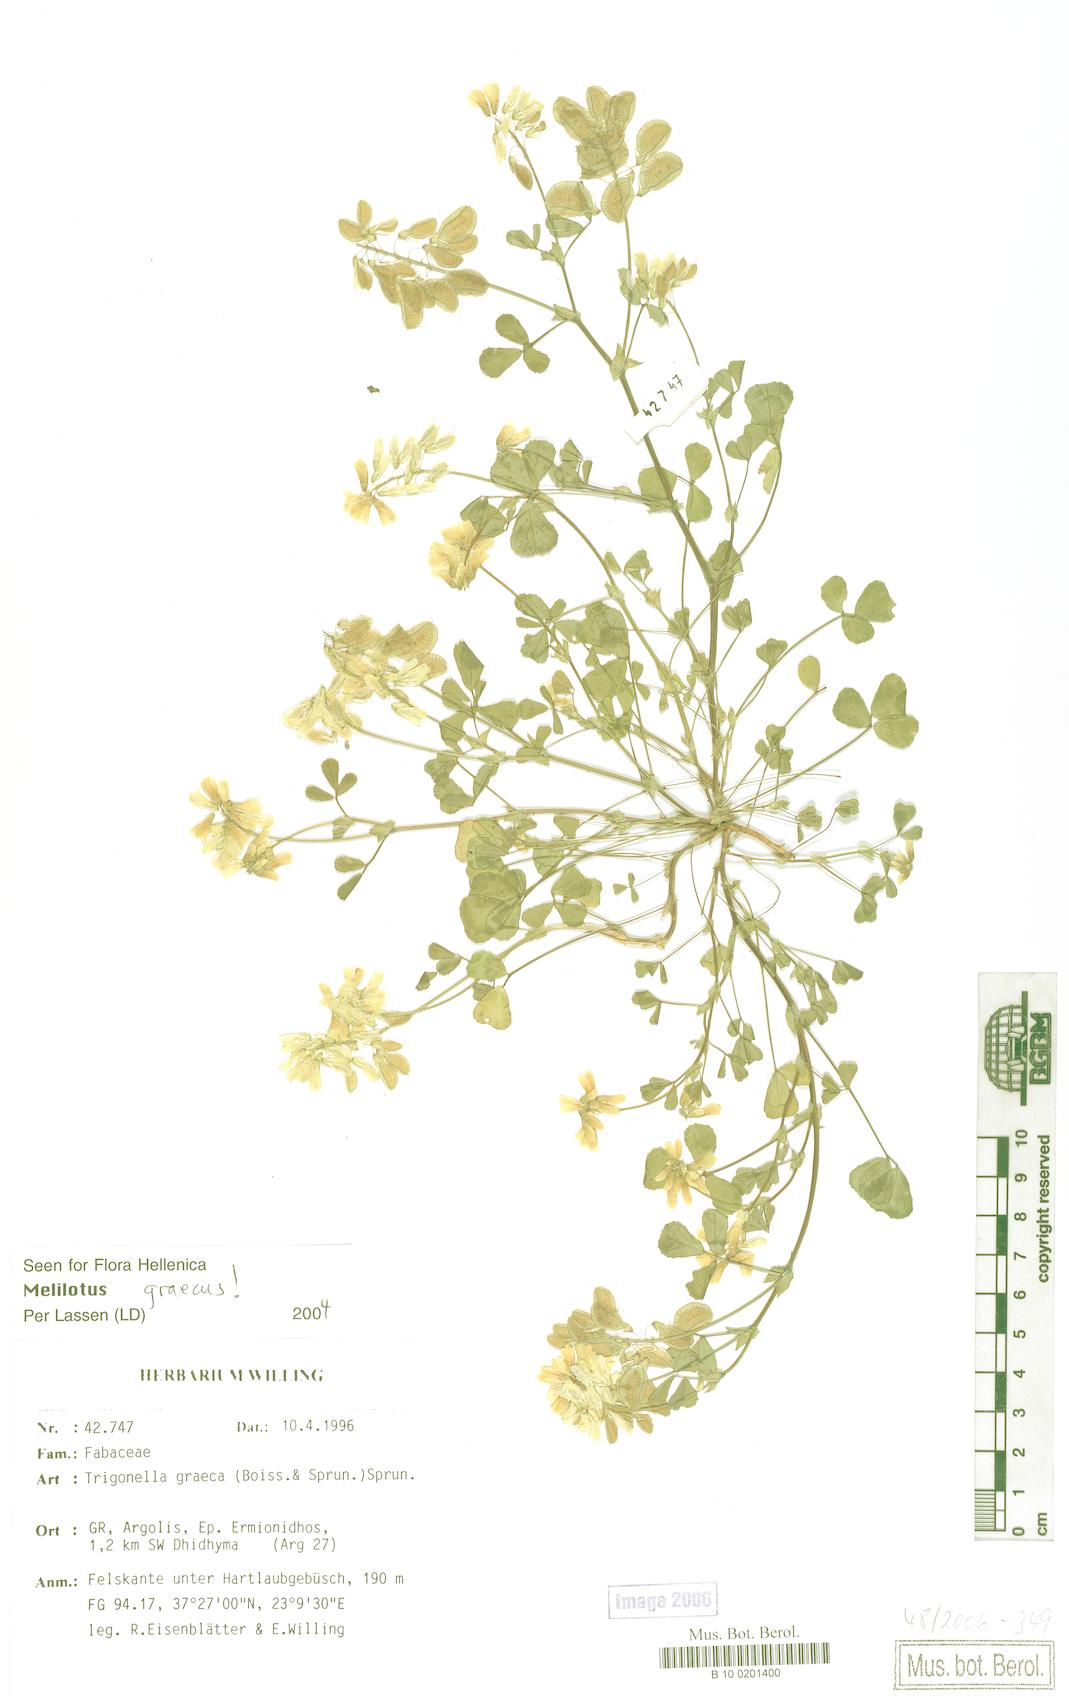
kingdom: Plantae
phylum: Tracheophyta
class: Magnoliopsida
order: Fabales
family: Fabaceae
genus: Trigonella
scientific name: Trigonella graeca
